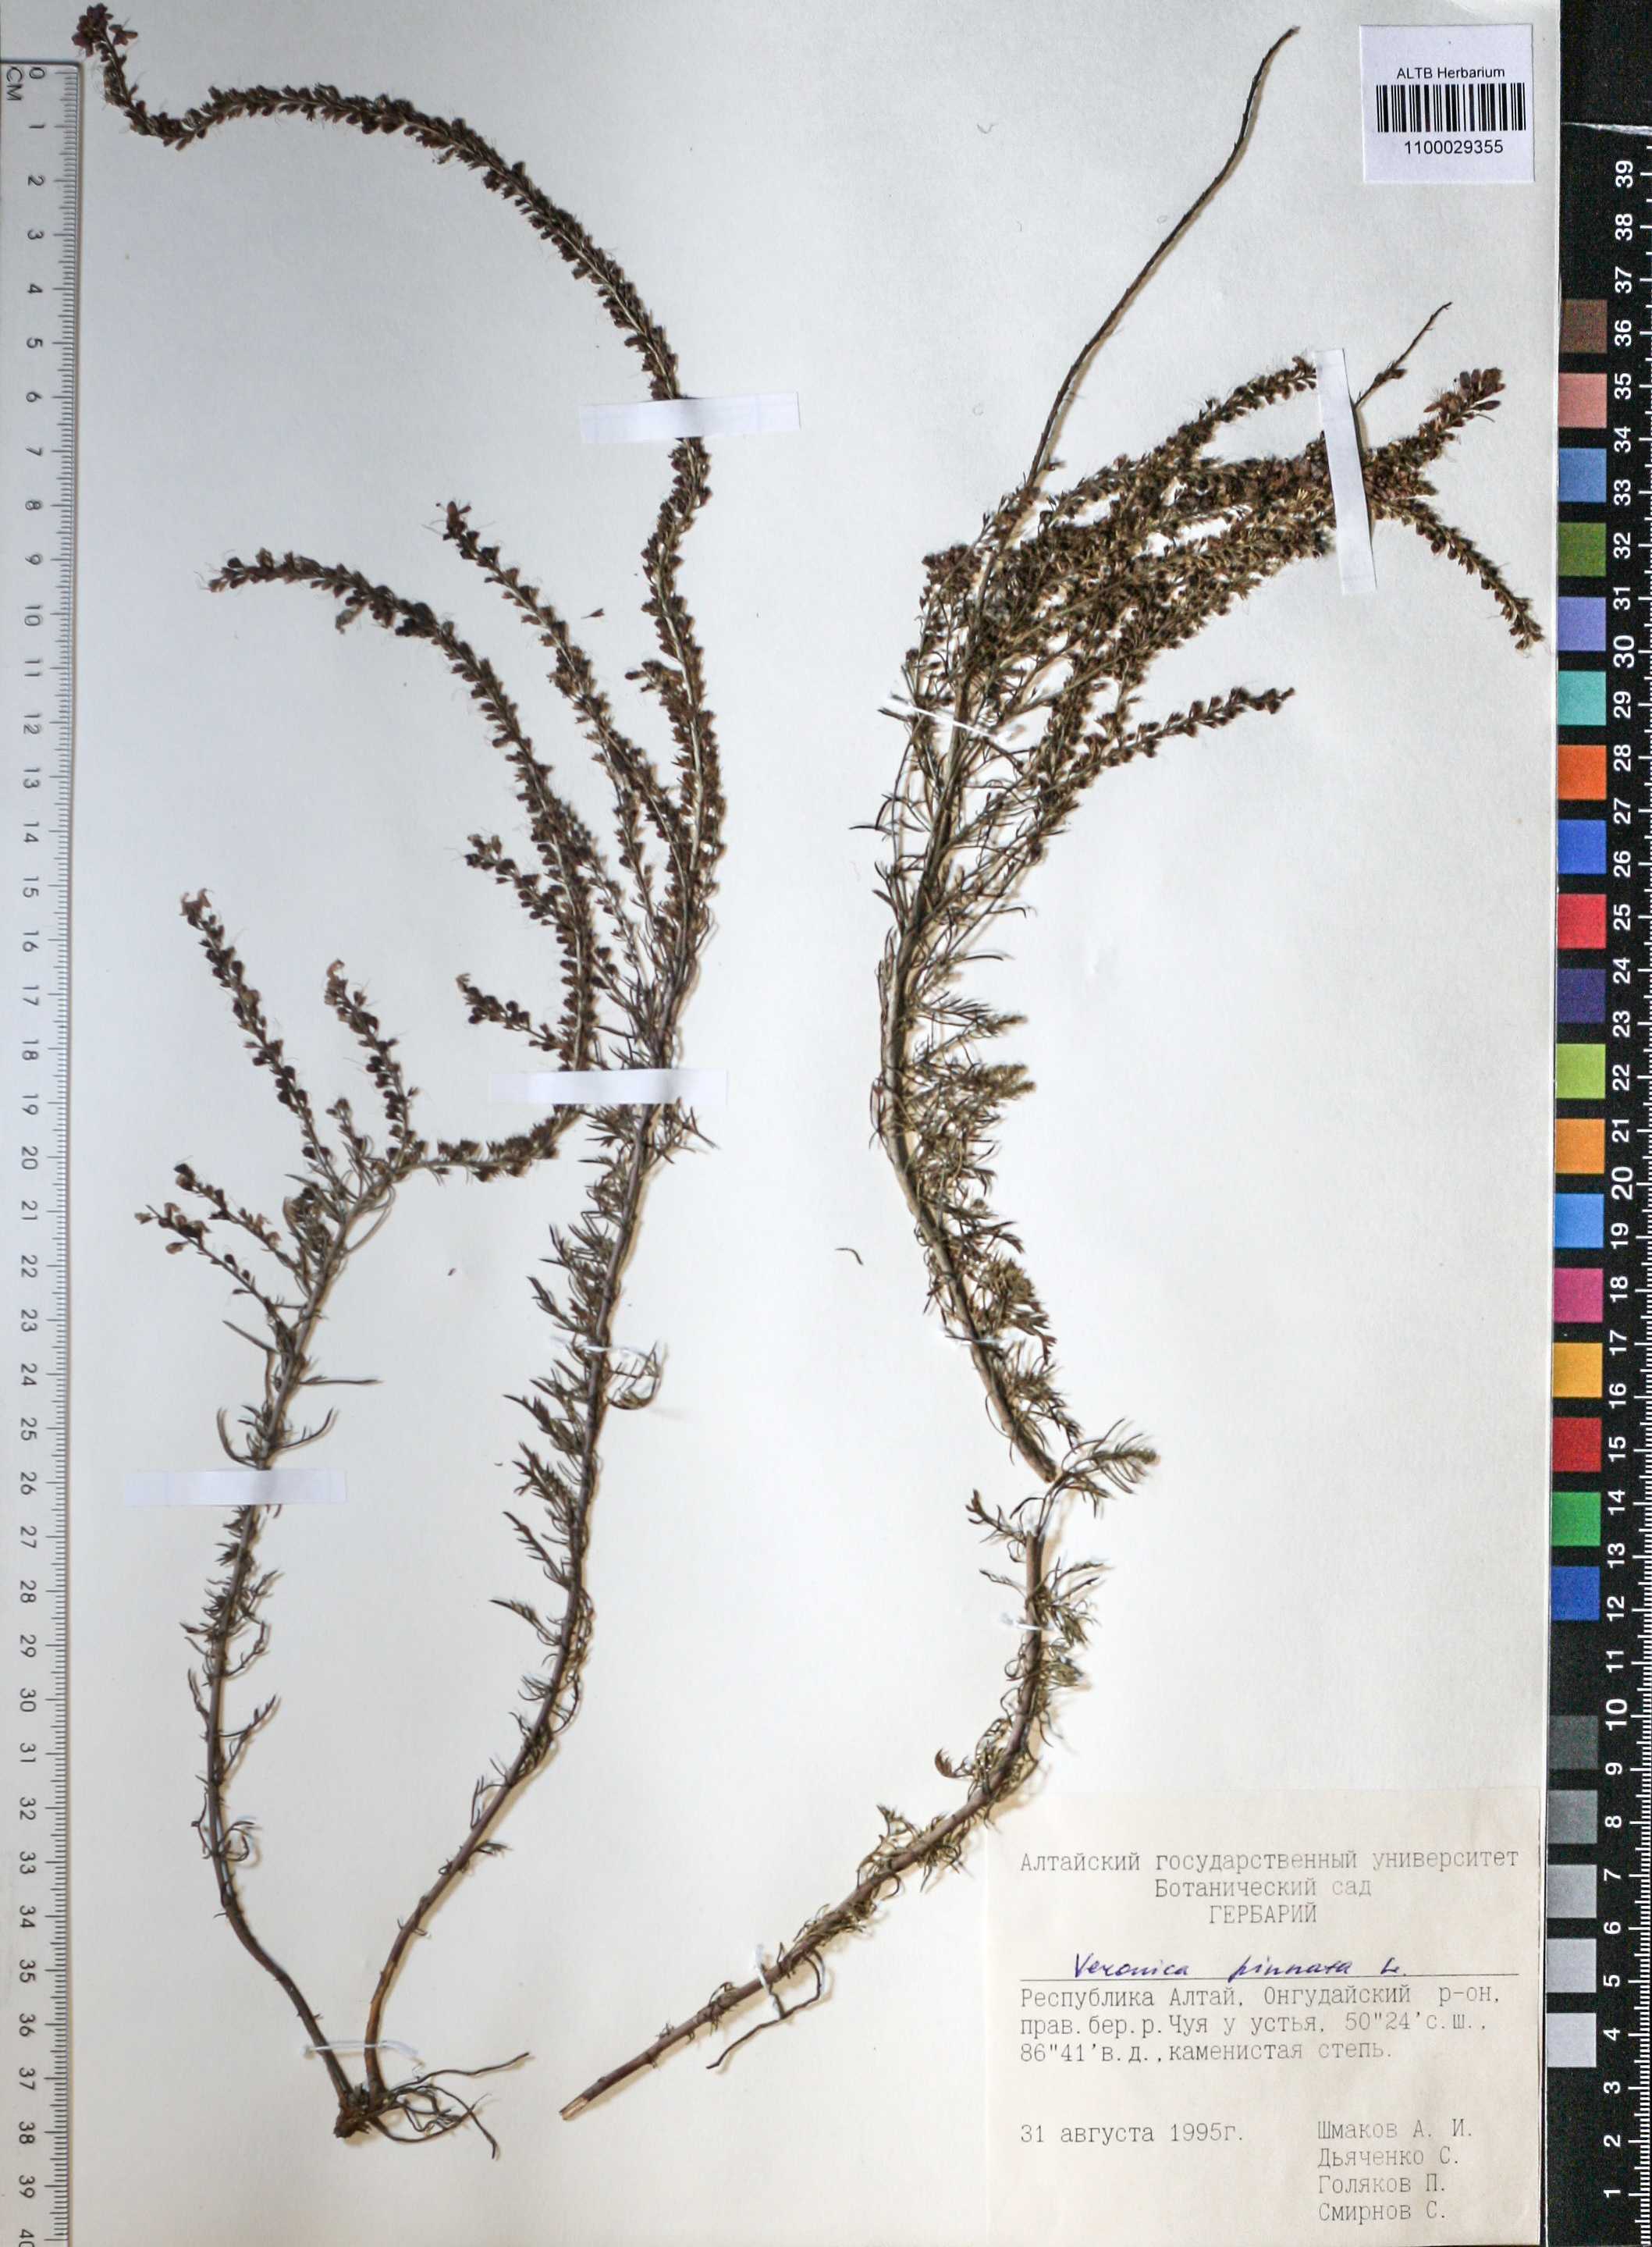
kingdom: Plantae
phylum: Tracheophyta
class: Magnoliopsida
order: Lamiales
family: Plantaginaceae
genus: Veronica
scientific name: Veronica pinnata
